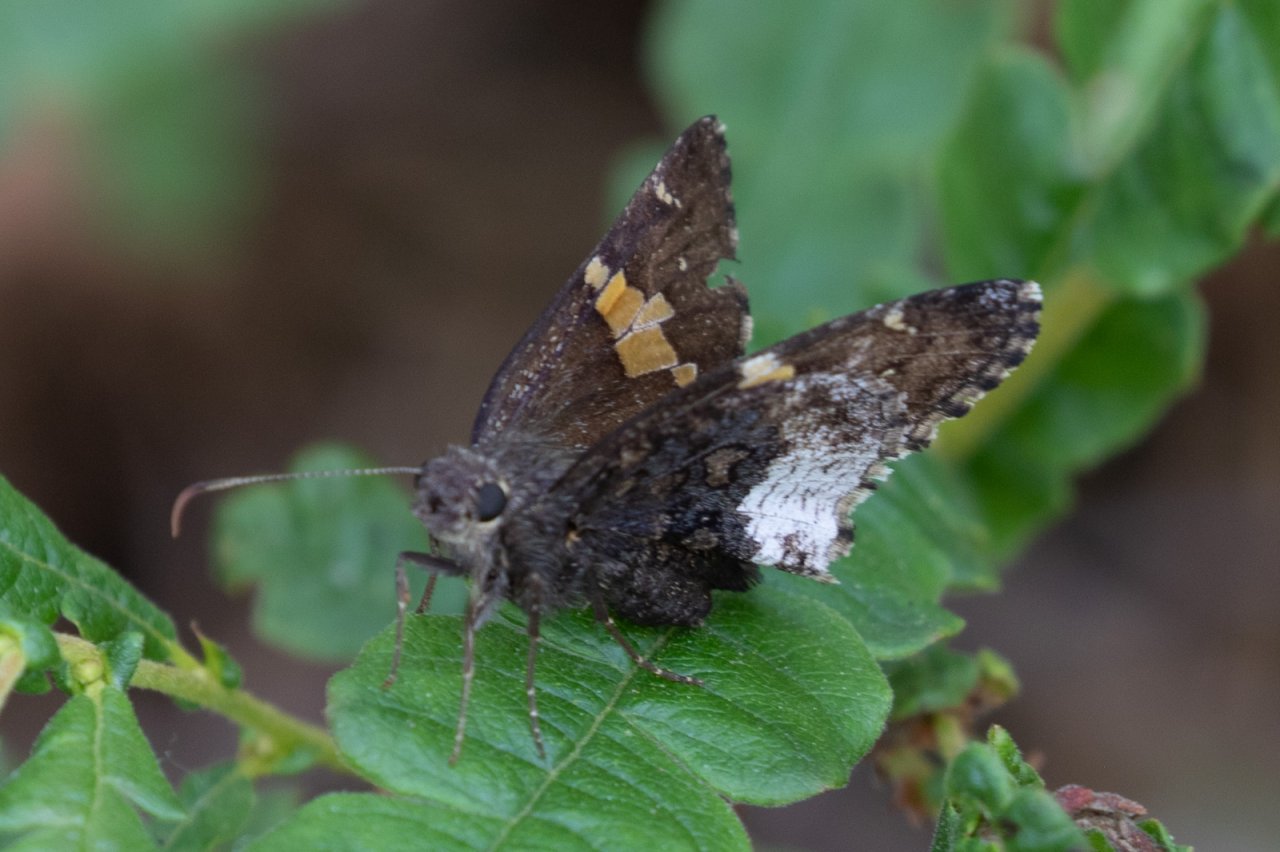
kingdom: Animalia
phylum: Arthropoda
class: Insecta
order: Lepidoptera
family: Hesperiidae
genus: Achalarus
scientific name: Achalarus lyciades
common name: Hoary Edge
